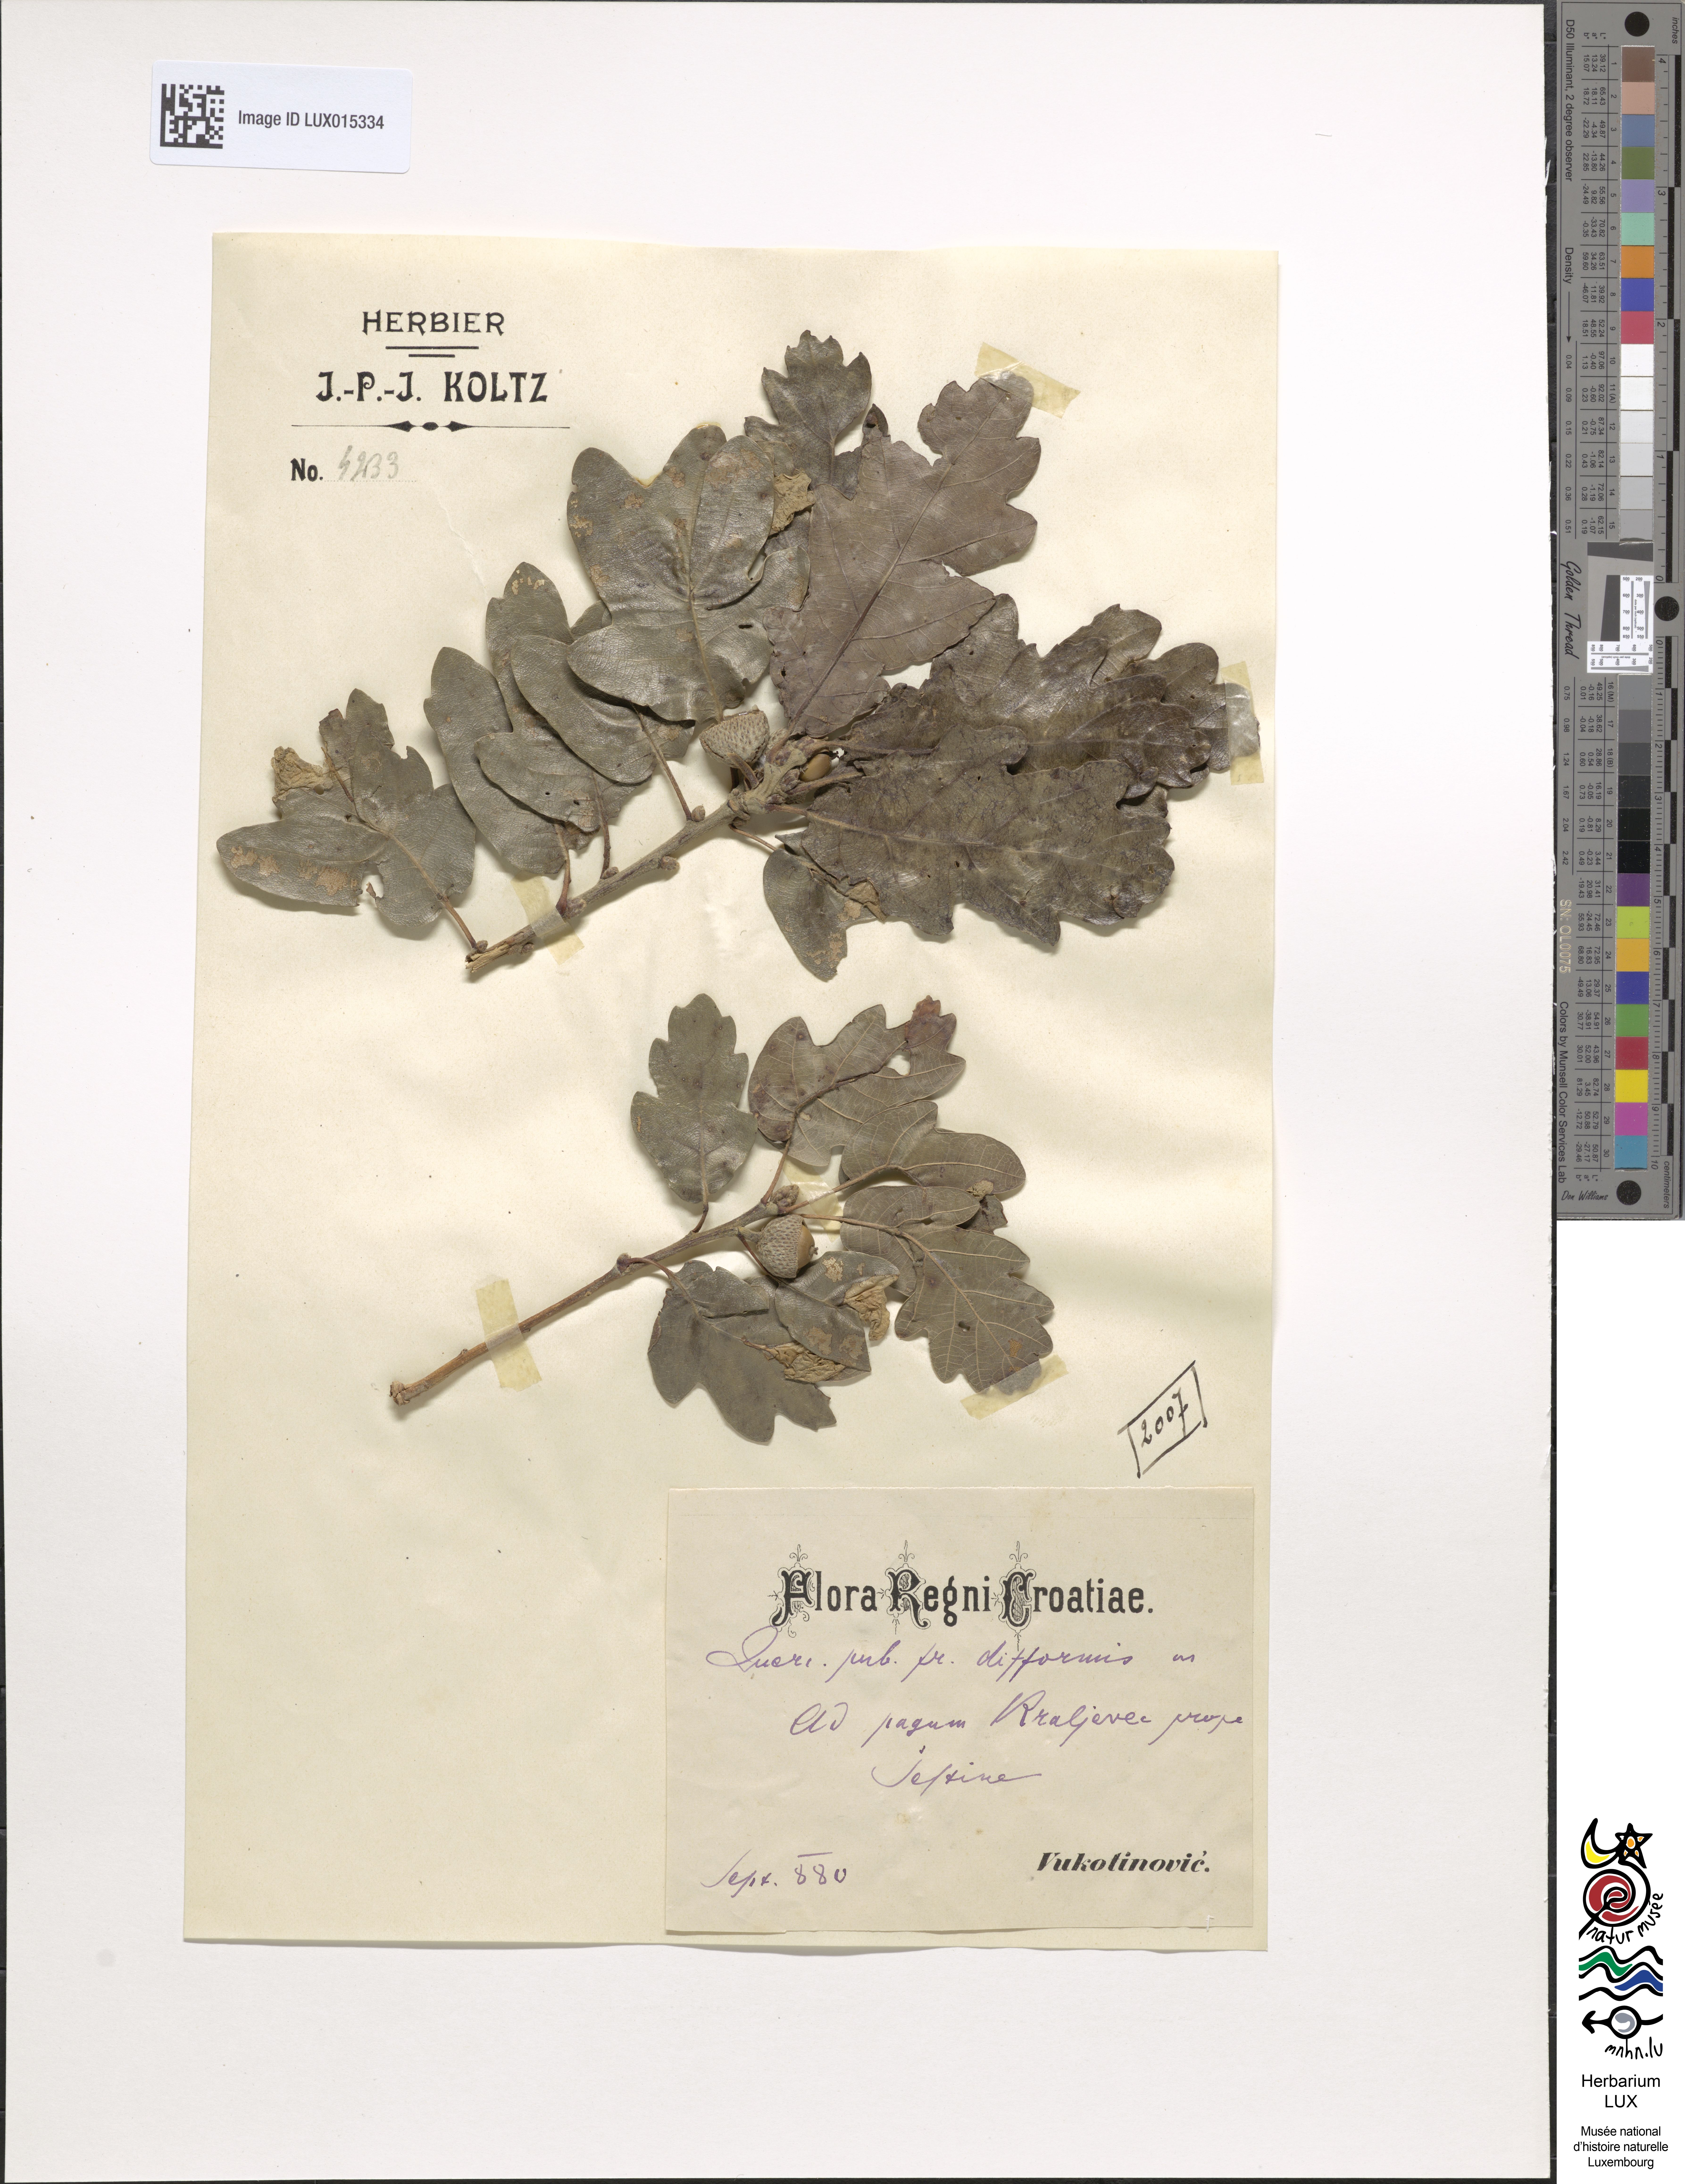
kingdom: Plantae
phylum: Tracheophyta
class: Magnoliopsida
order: Fagales
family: Fagaceae
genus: Quercus
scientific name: Quercus pubescens
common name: Downy oak
